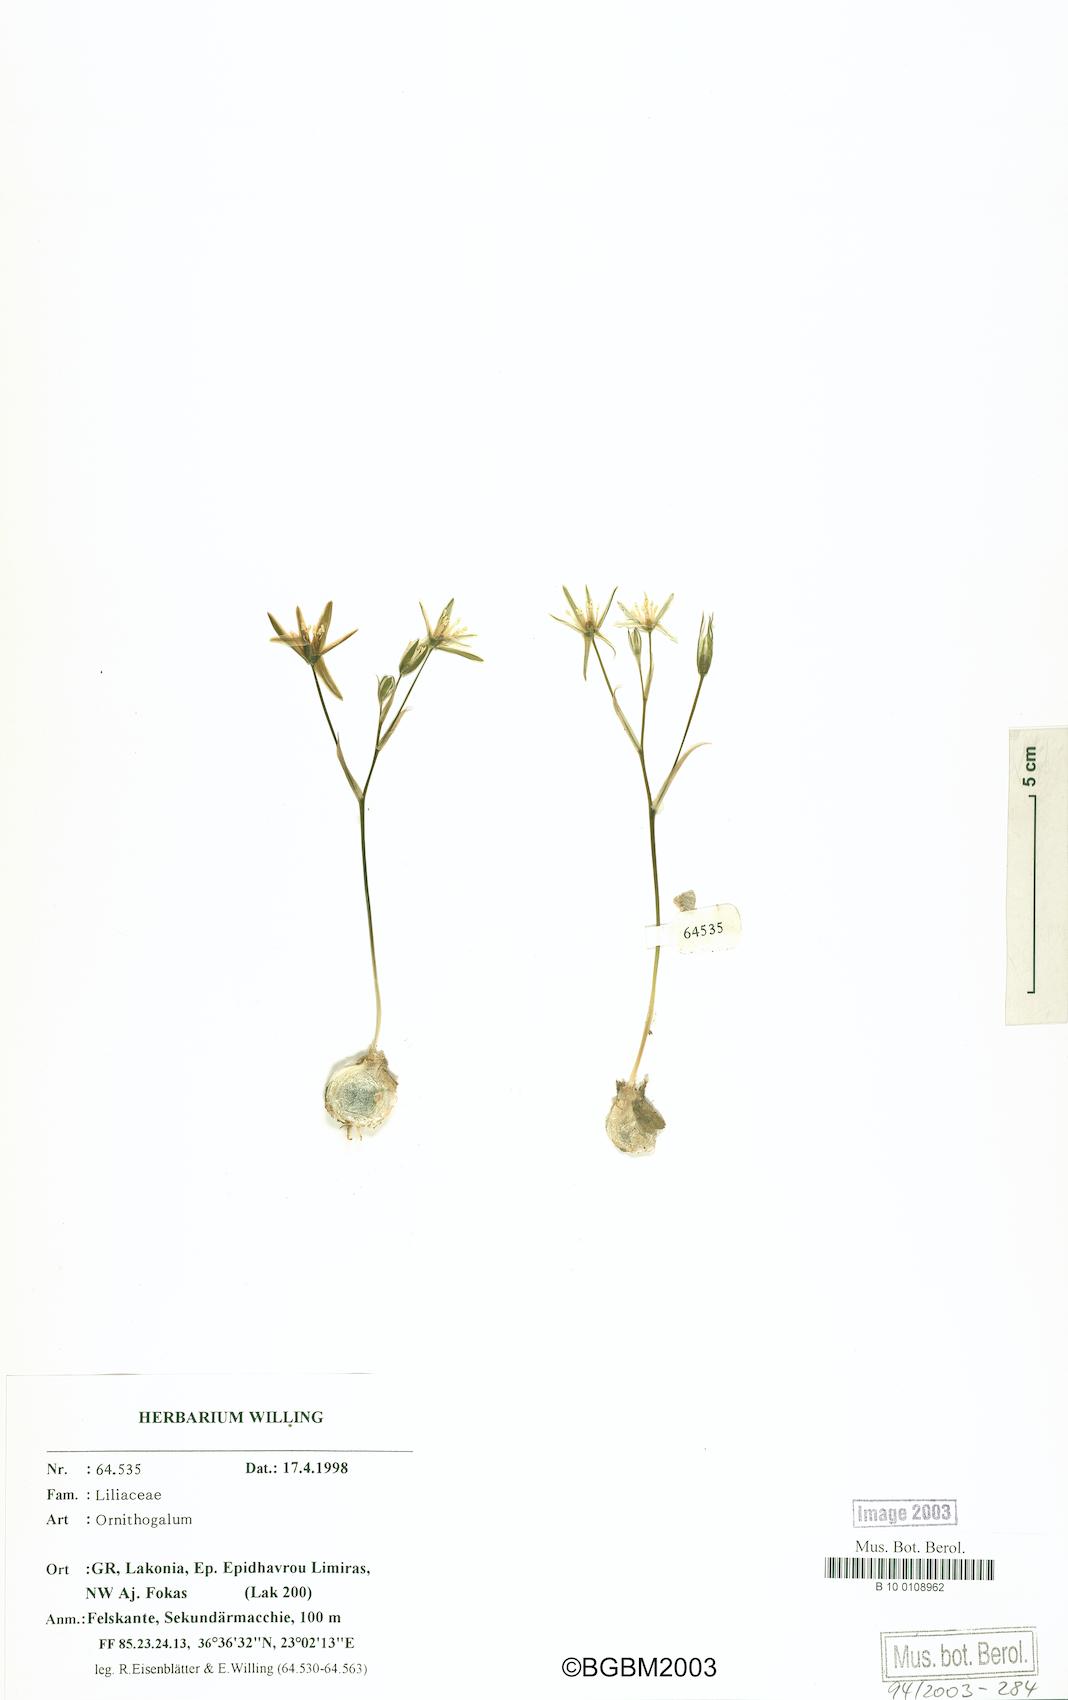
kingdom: Plantae
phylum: Tracheophyta
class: Liliopsida
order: Asparagales
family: Asparagaceae
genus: Ornithogalum
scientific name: Ornithogalum gussonei
